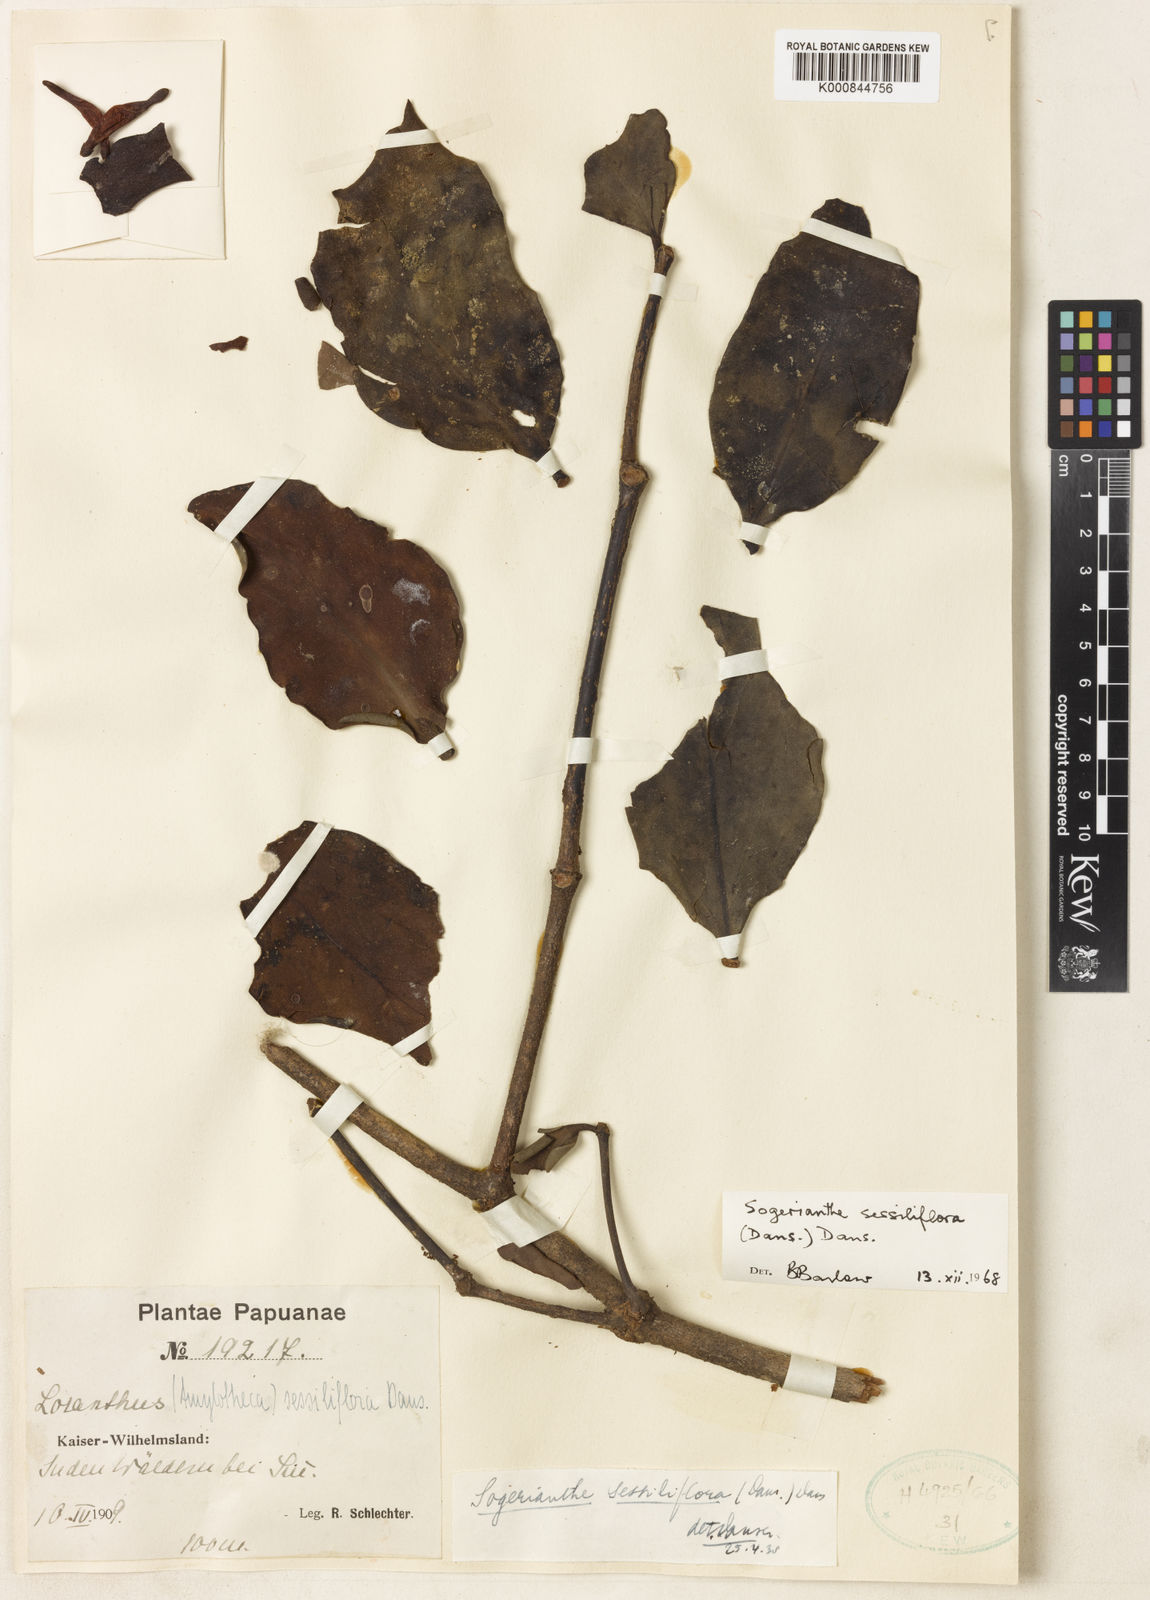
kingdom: Plantae
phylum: Tracheophyta
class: Magnoliopsida
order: Santalales
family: Loranthaceae
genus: Sogerianthe
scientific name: Sogerianthe sessiliflora
